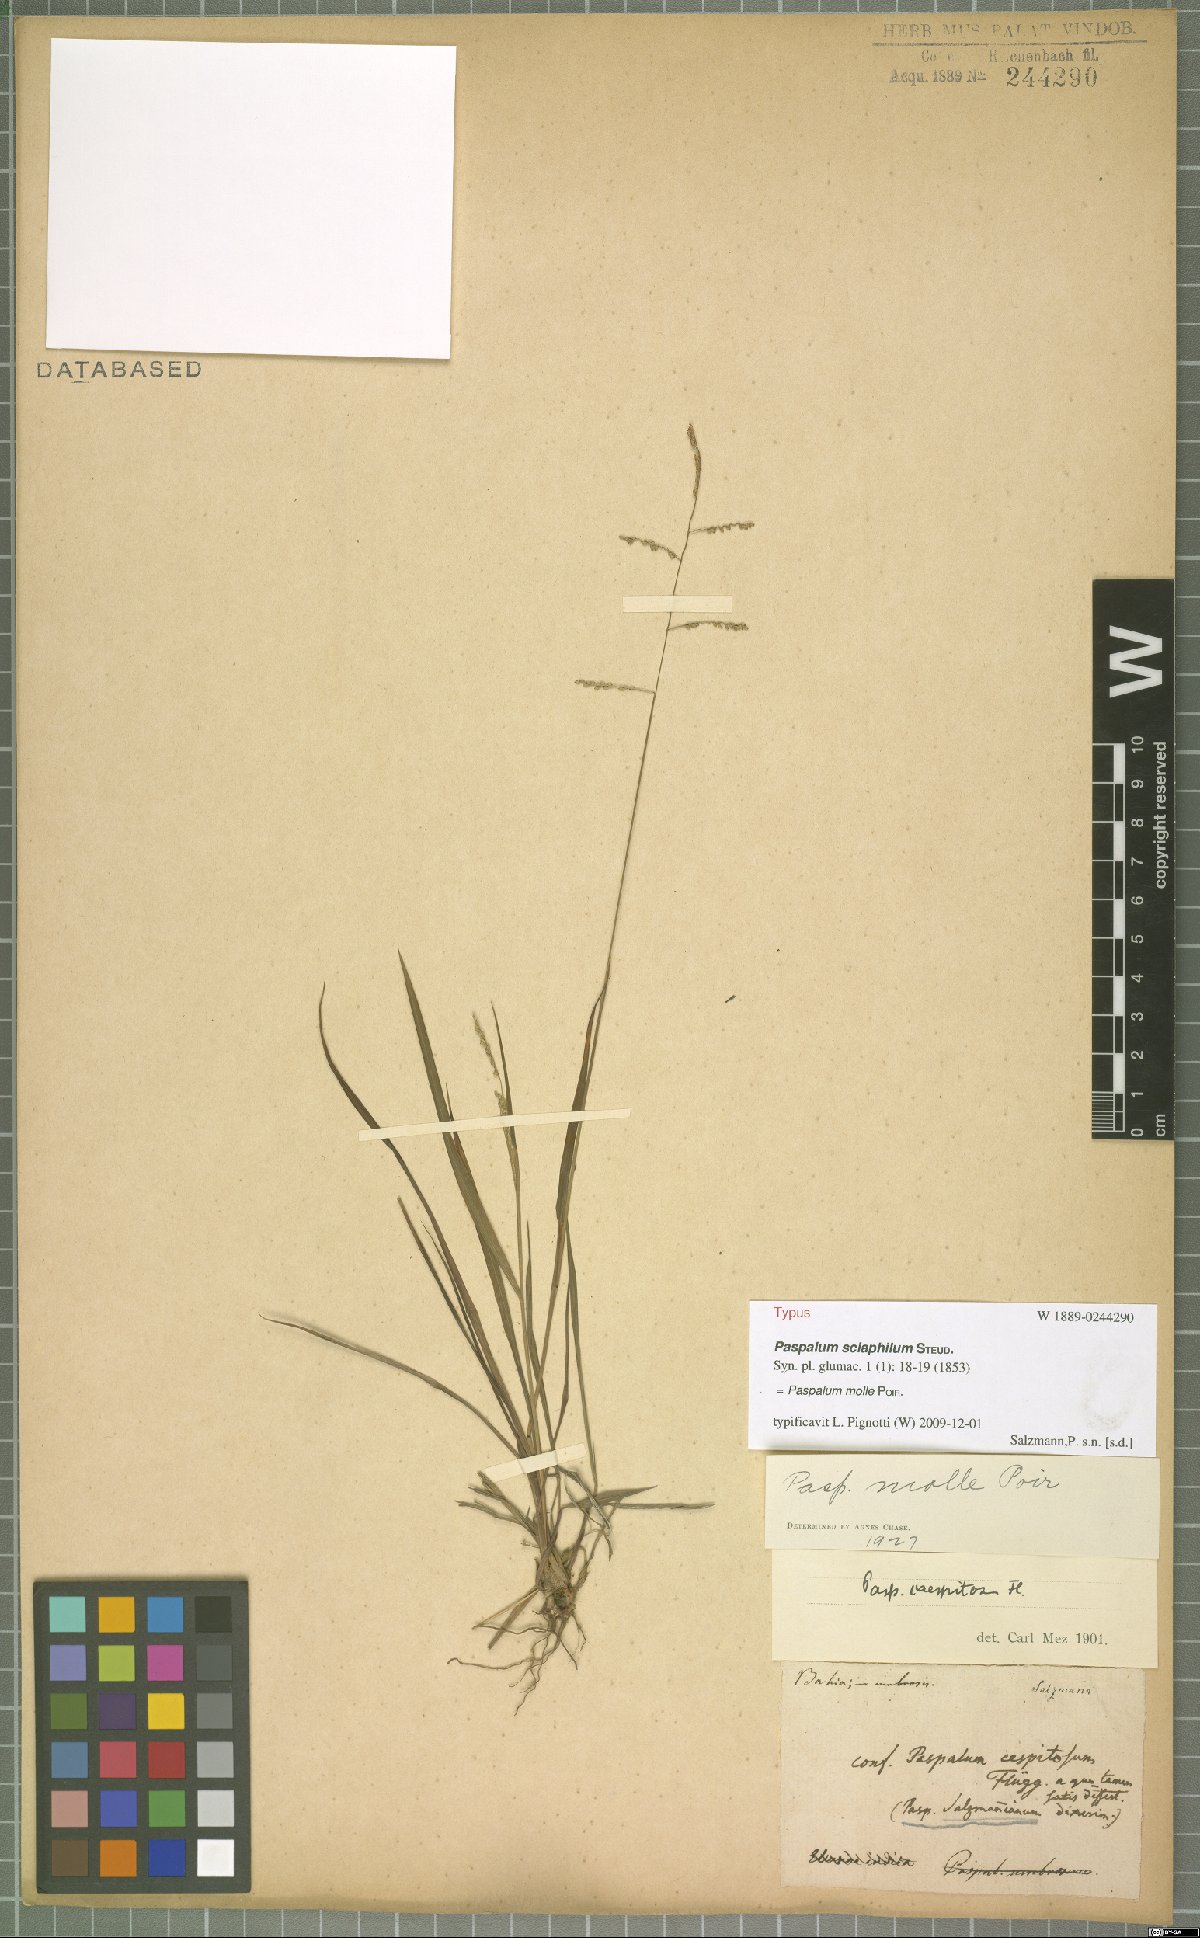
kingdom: Plantae
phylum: Tracheophyta
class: Liliopsida
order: Poales
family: Poaceae
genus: Paspalum
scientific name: Paspalum molle
